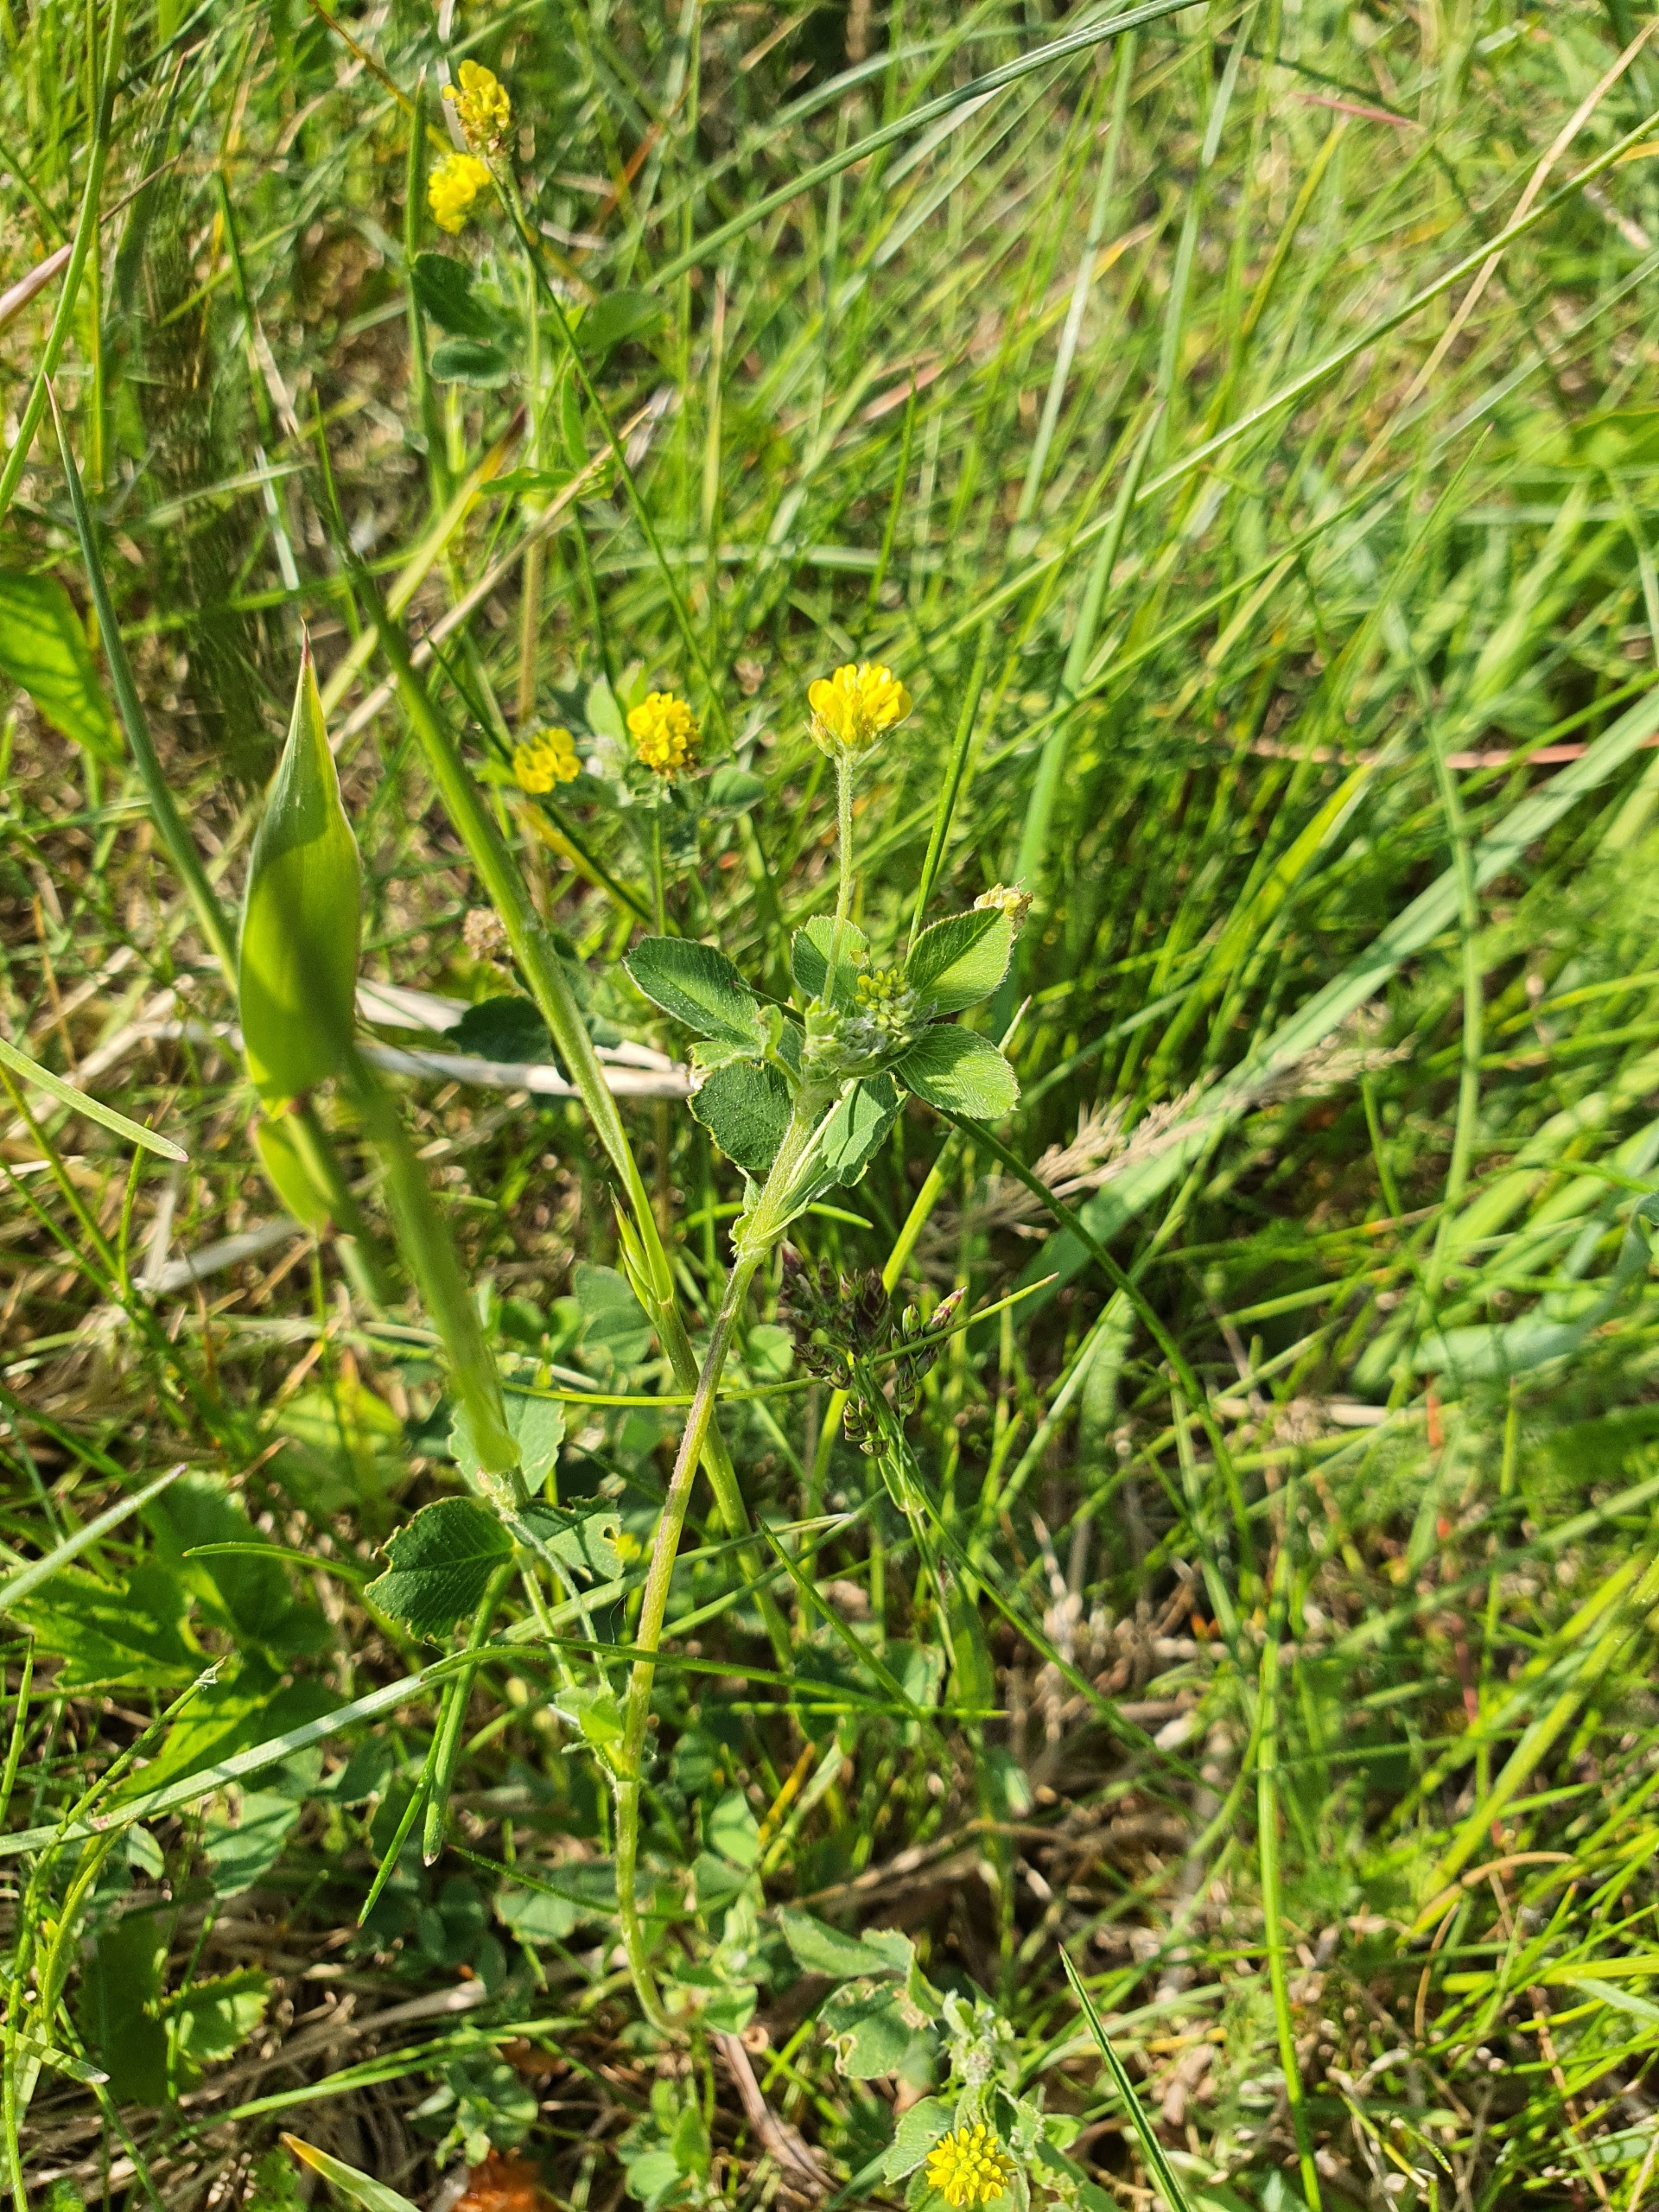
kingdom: Plantae
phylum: Tracheophyta
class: Magnoliopsida
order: Fabales
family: Fabaceae
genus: Medicago
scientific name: Medicago lupulina
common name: Humle-sneglebælg
